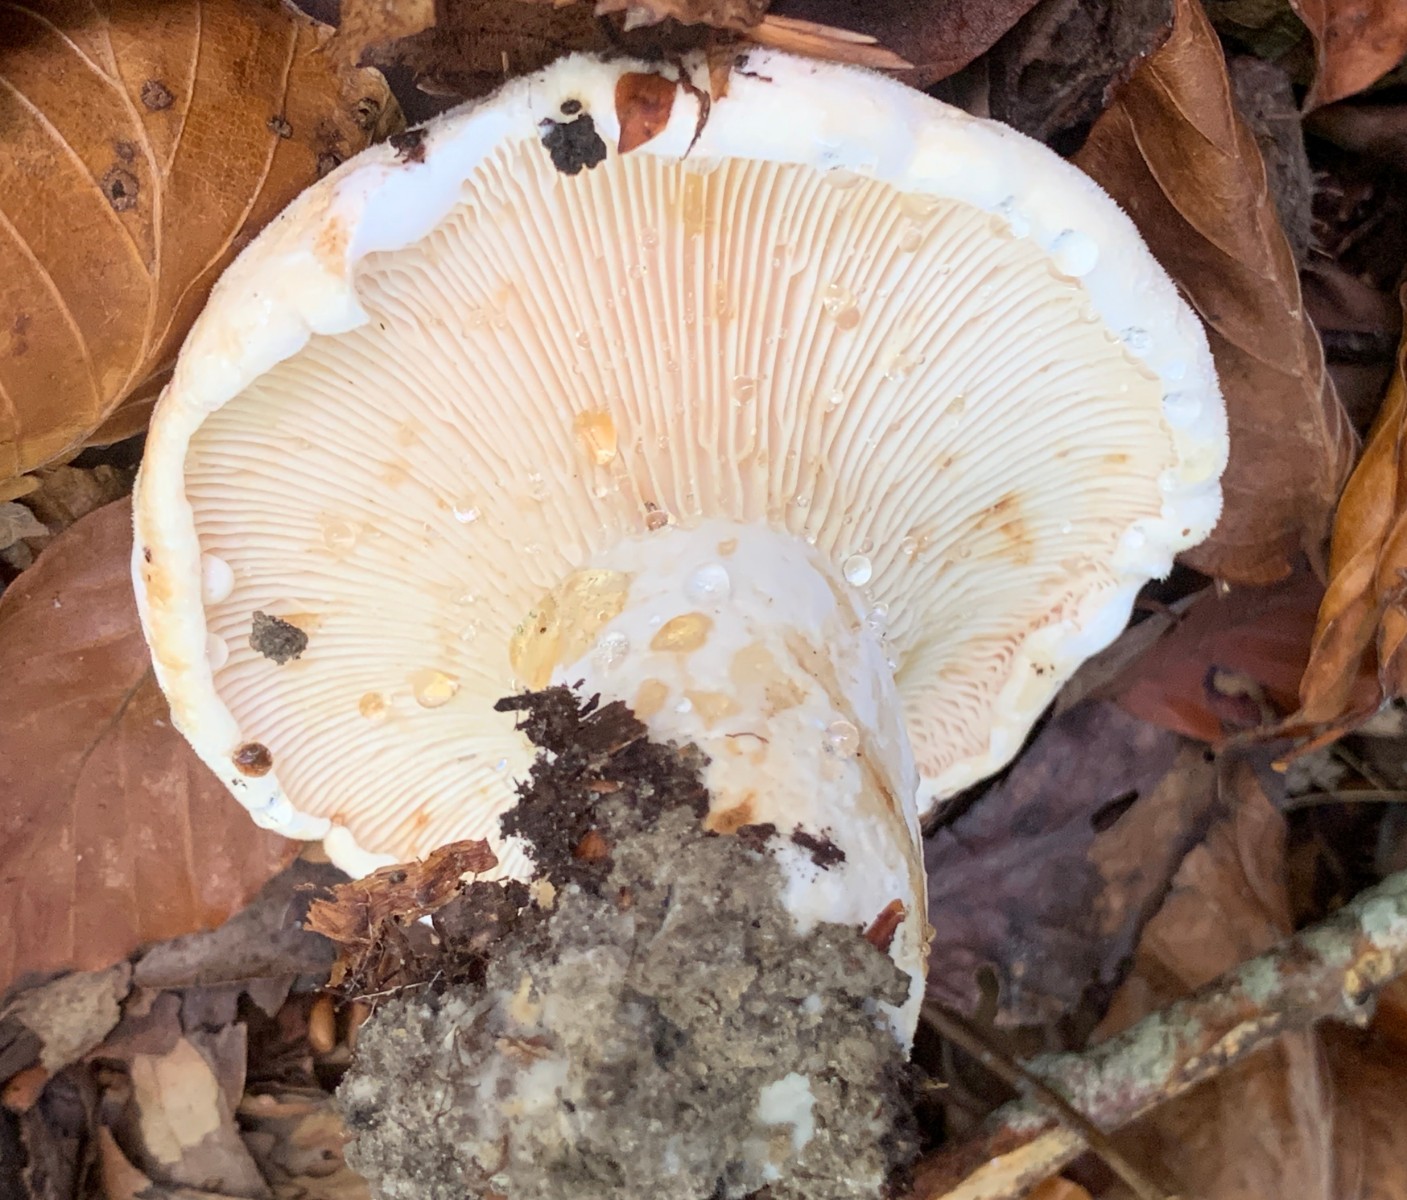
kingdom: Fungi
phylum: Basidiomycota
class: Agaricomycetes
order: Russulales
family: Russulaceae
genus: Lactifluus
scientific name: Lactifluus piperatus
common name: peber-mælkehat
